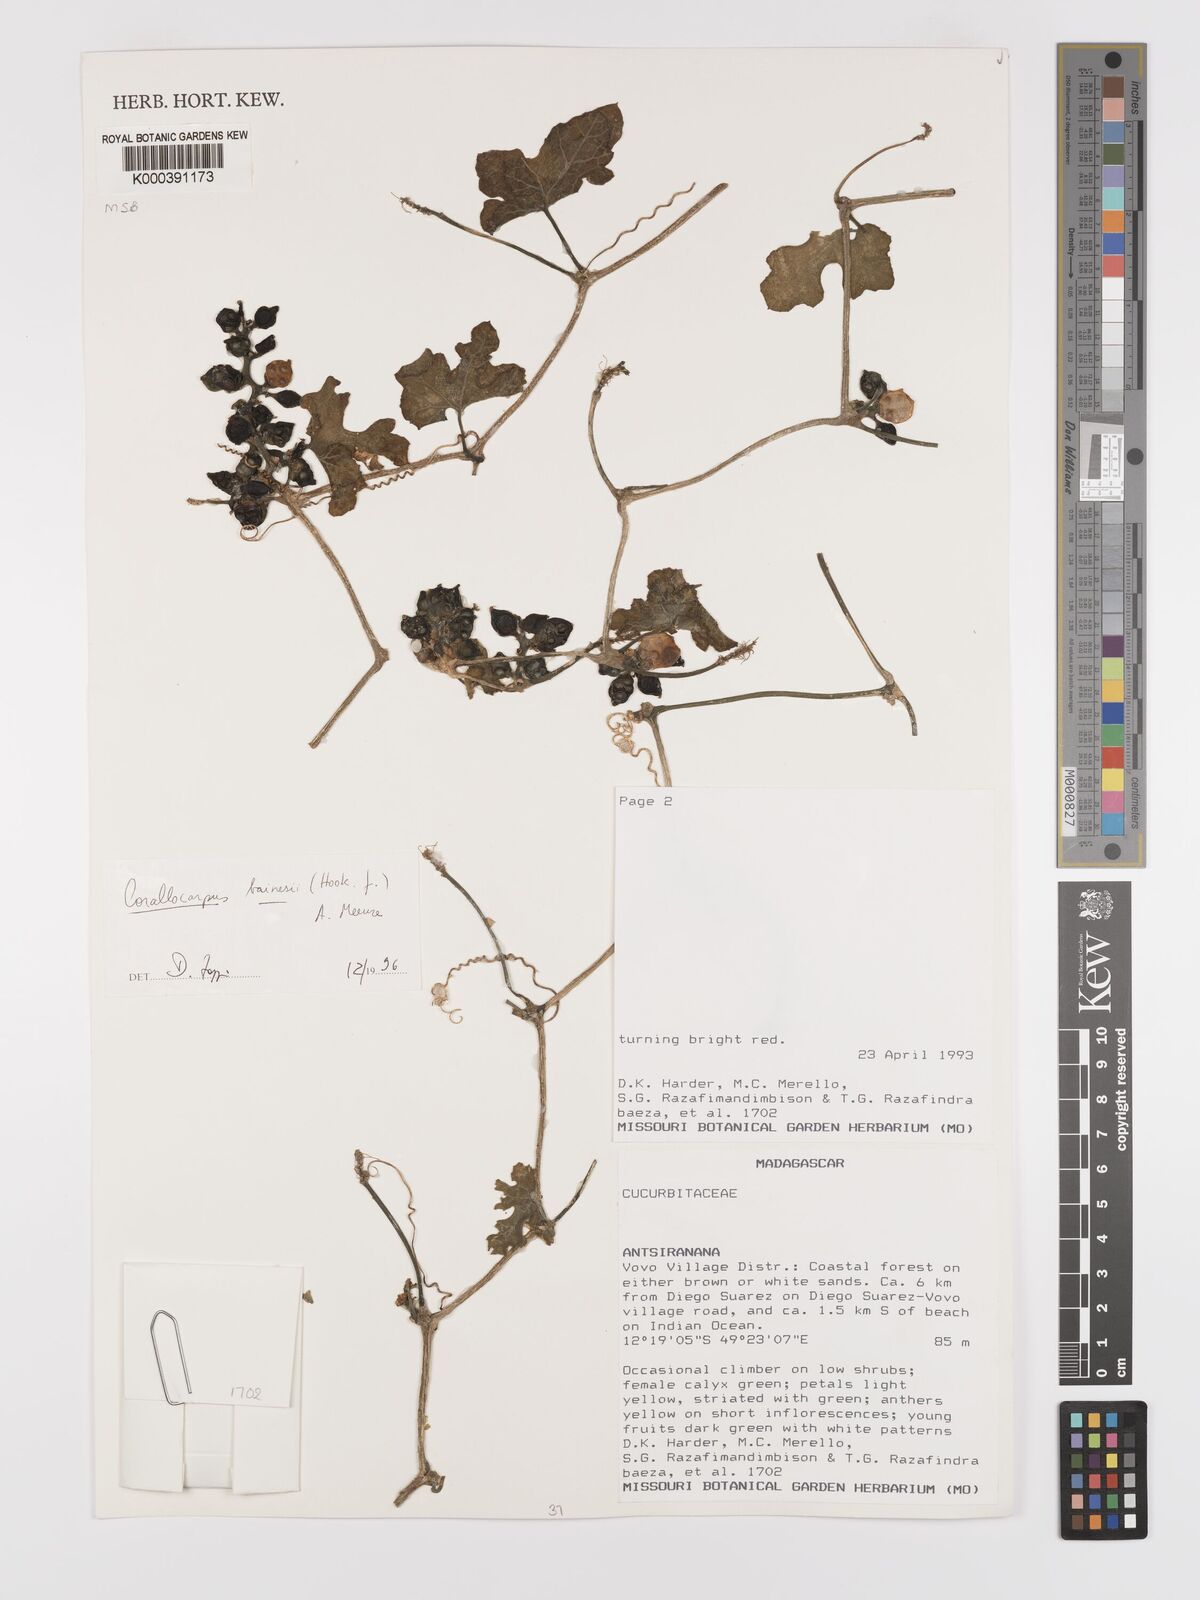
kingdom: Plantae
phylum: Tracheophyta
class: Magnoliopsida
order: Cucurbitales
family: Cucurbitaceae
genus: Corallocarpus
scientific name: Corallocarpus bainesii
